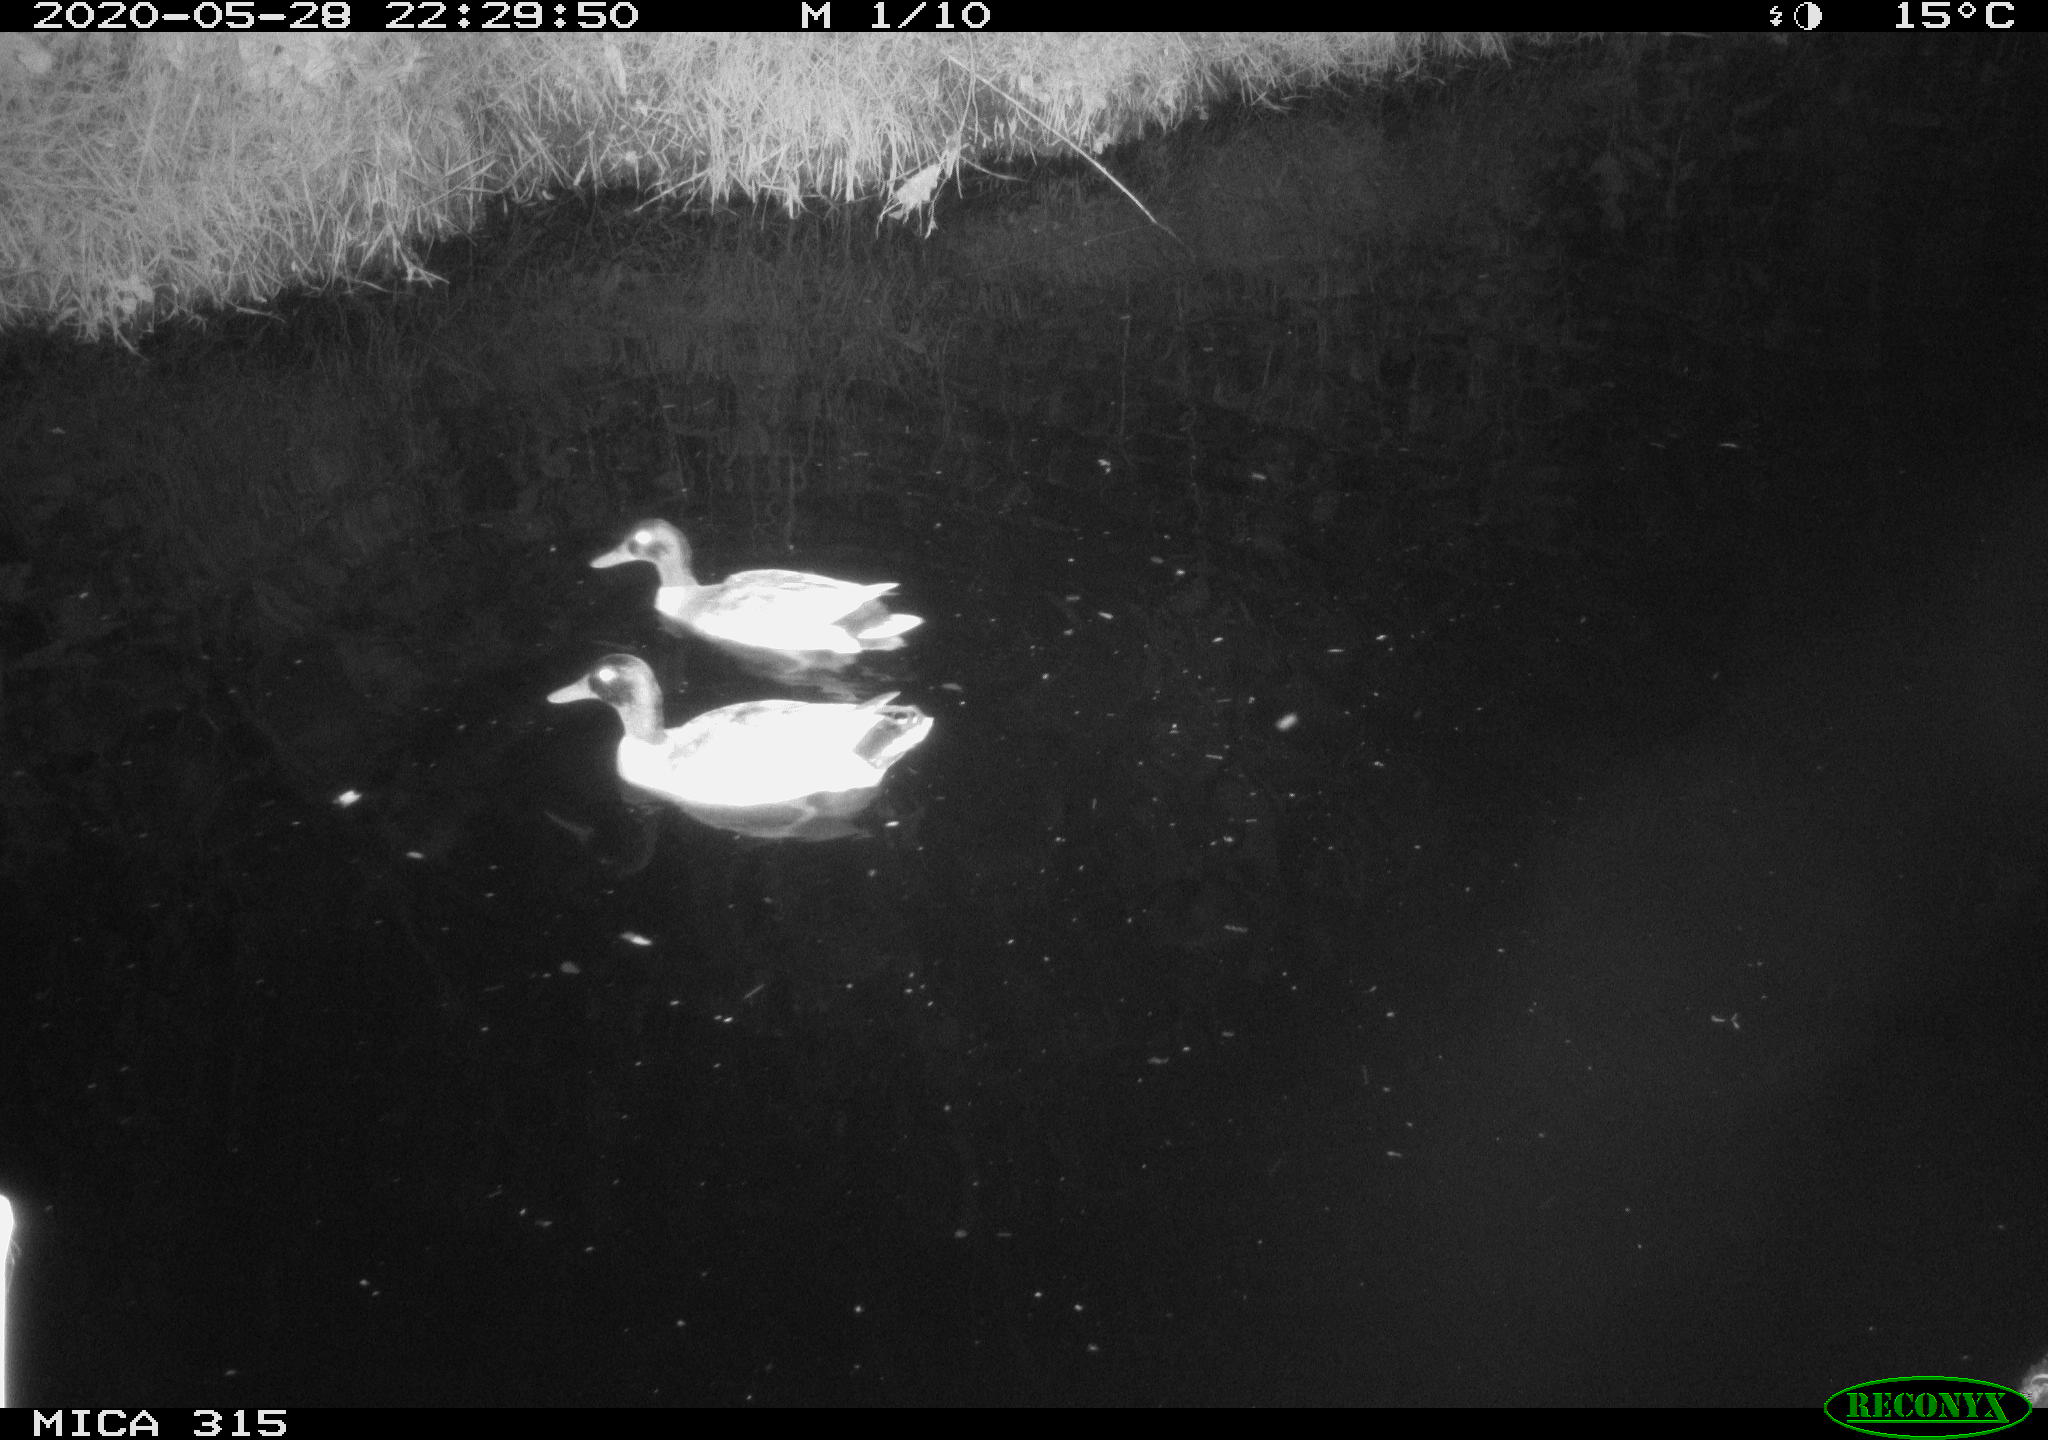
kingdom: Animalia
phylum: Chordata
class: Aves
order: Anseriformes
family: Anatidae
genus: Anas
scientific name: Anas platyrhynchos
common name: Mallard
